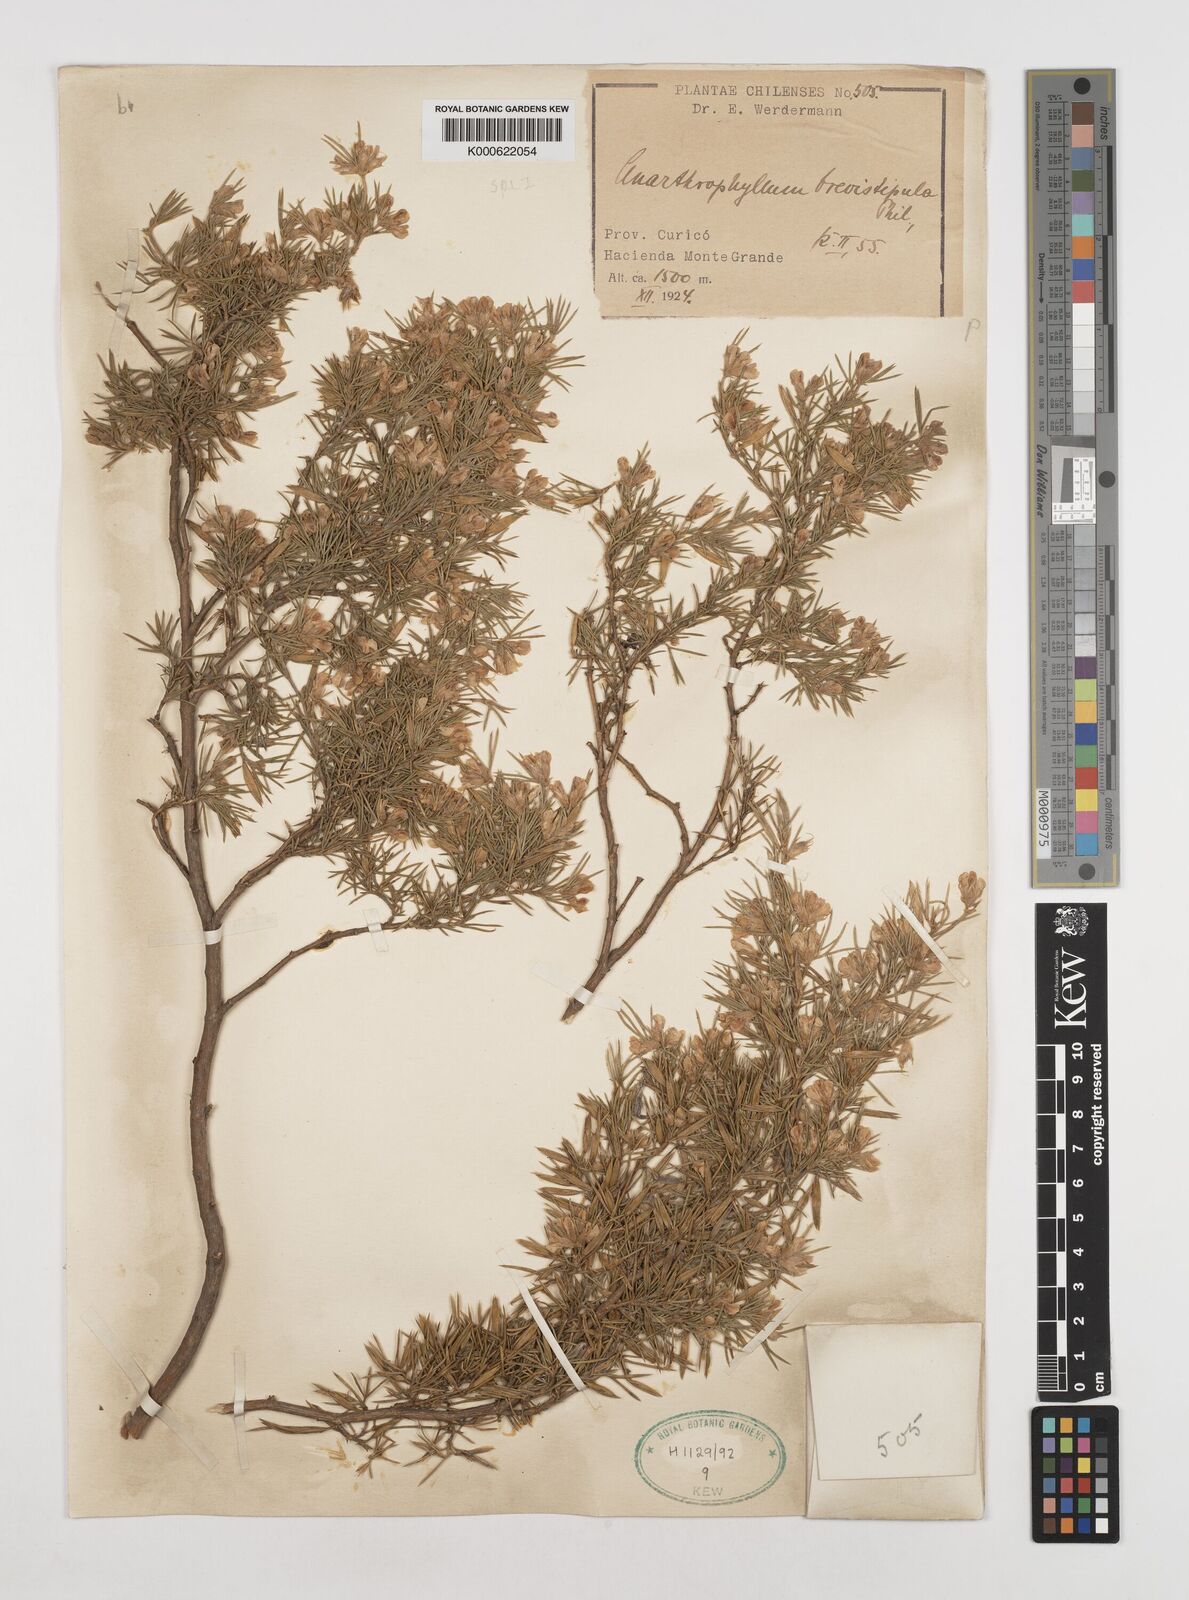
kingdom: Plantae
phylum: Tracheophyta
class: Magnoliopsida
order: Fabales
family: Fabaceae
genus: Anarthrophyllum
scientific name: Anarthrophyllum rigidum
